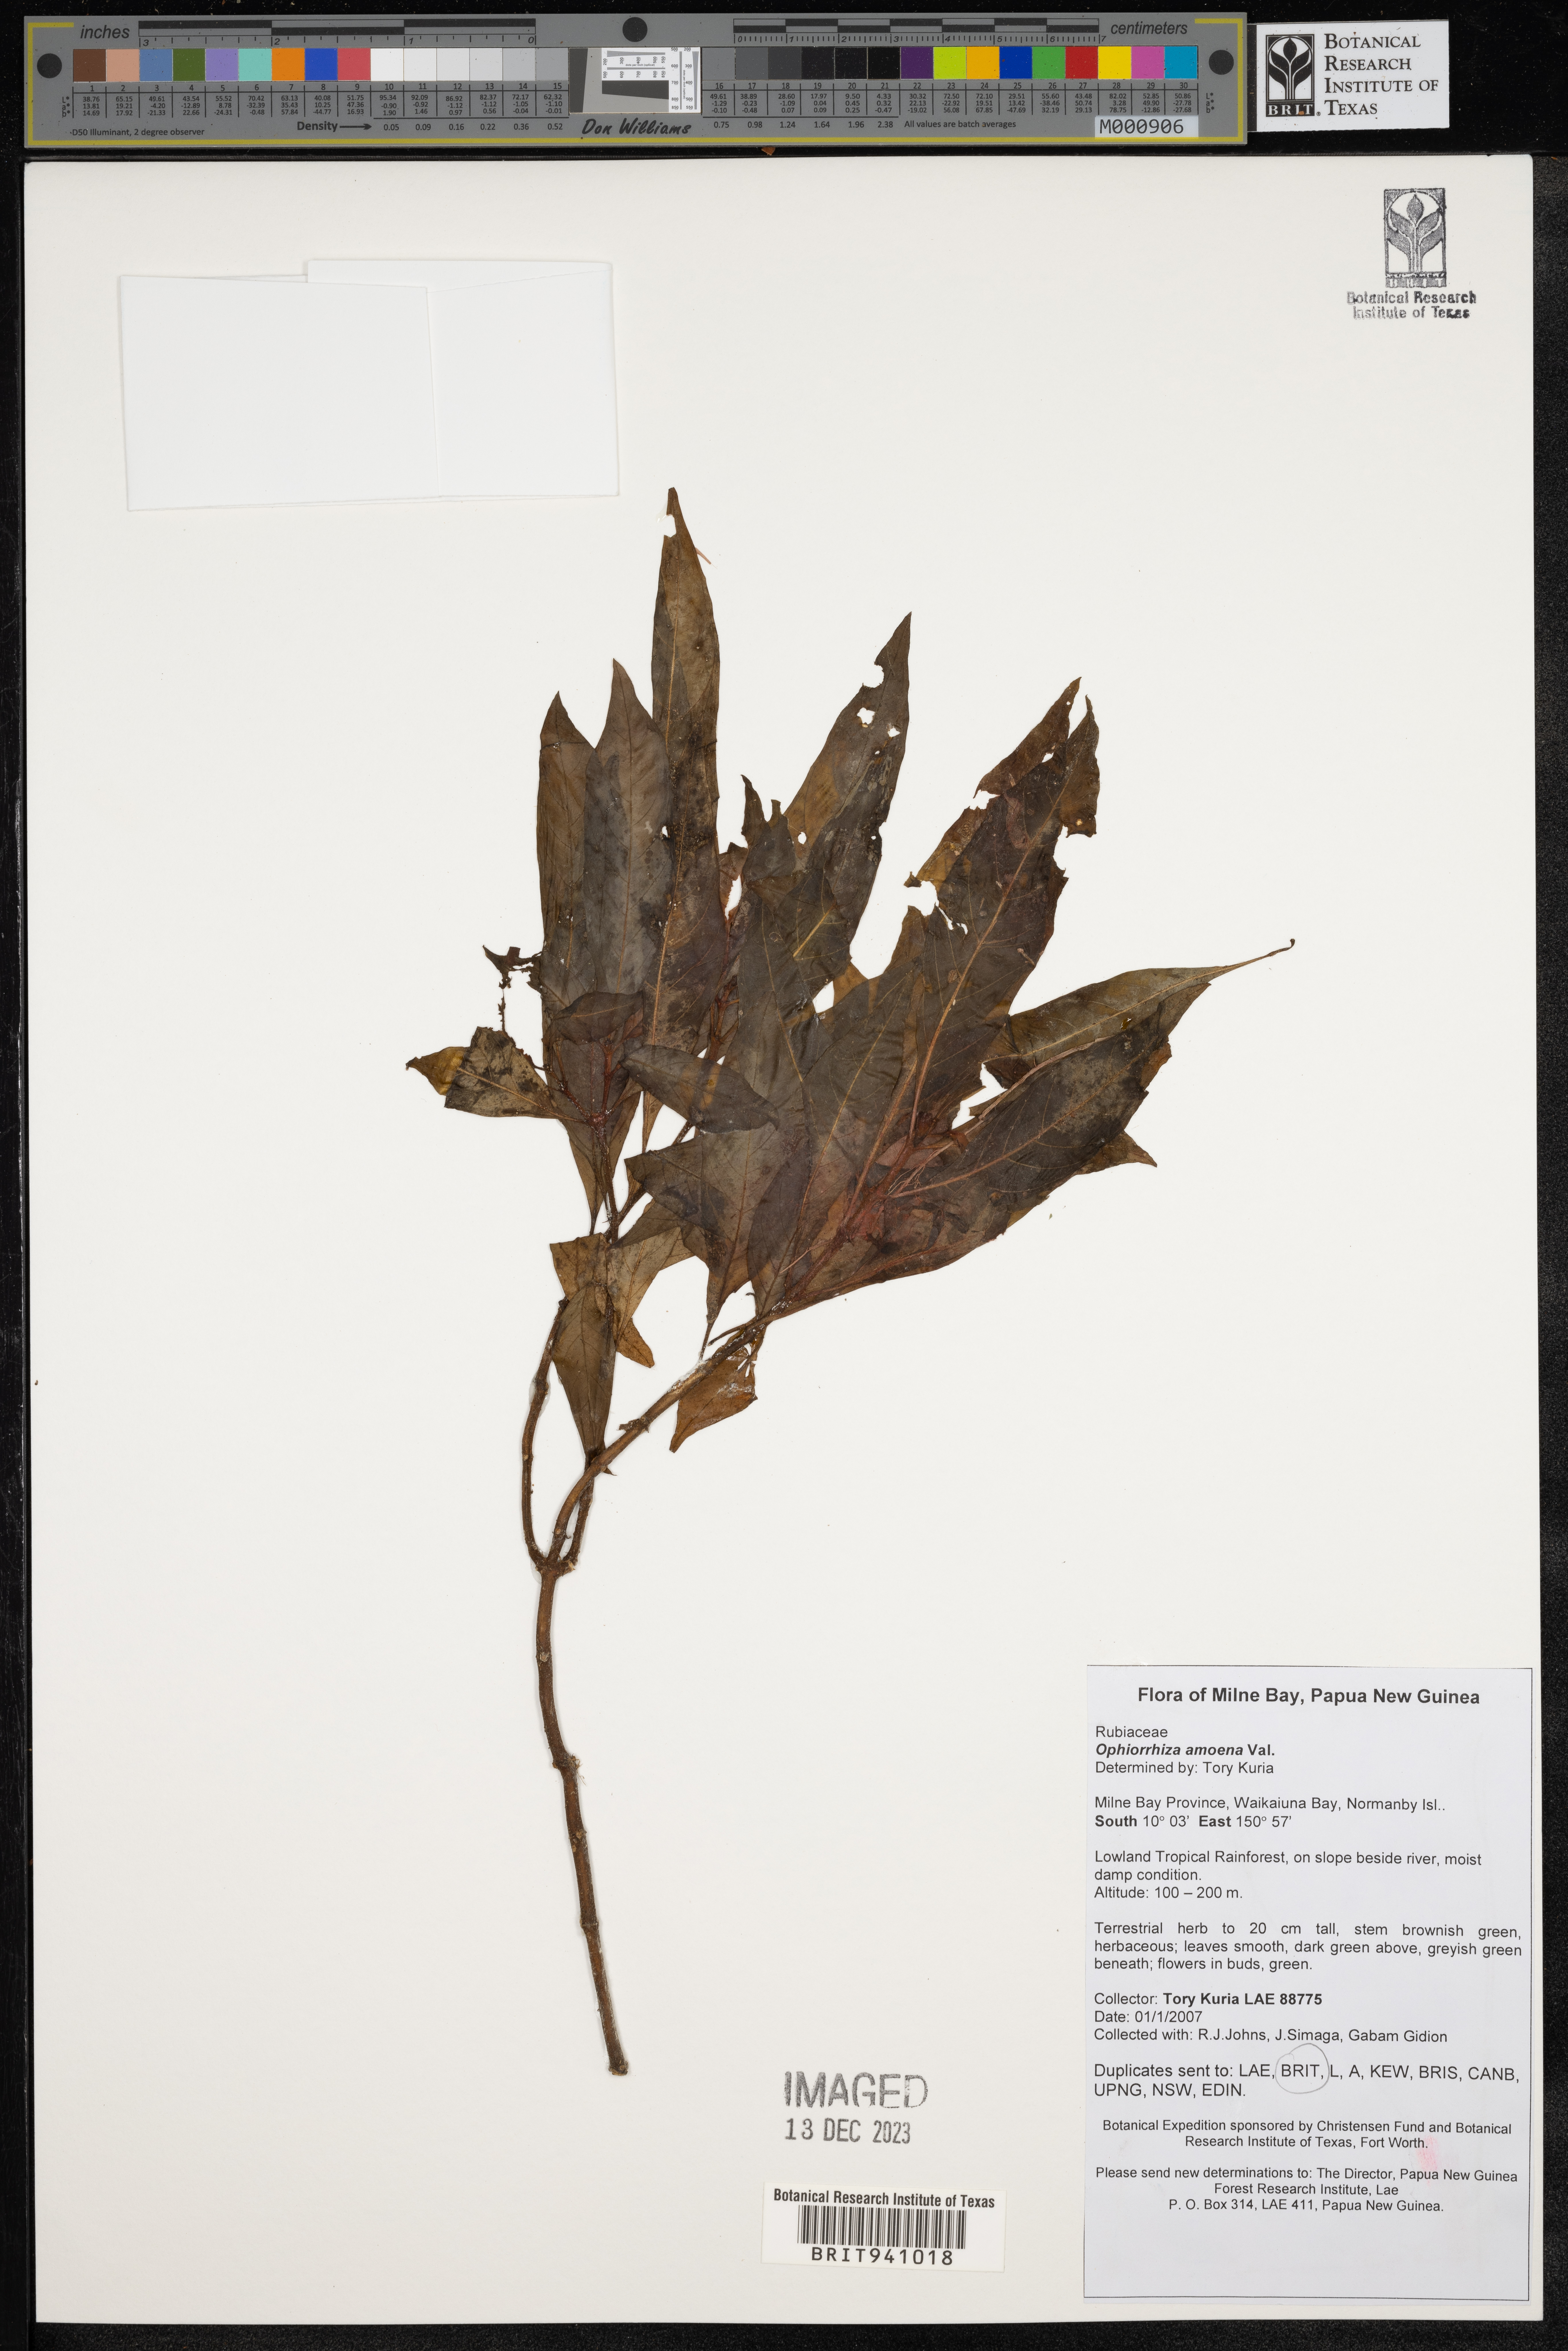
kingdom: Plantae
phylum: Tracheophyta
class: Magnoliopsida
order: Gentianales
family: Rubiaceae
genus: Ophiorrhiza
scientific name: Ophiorrhiza
